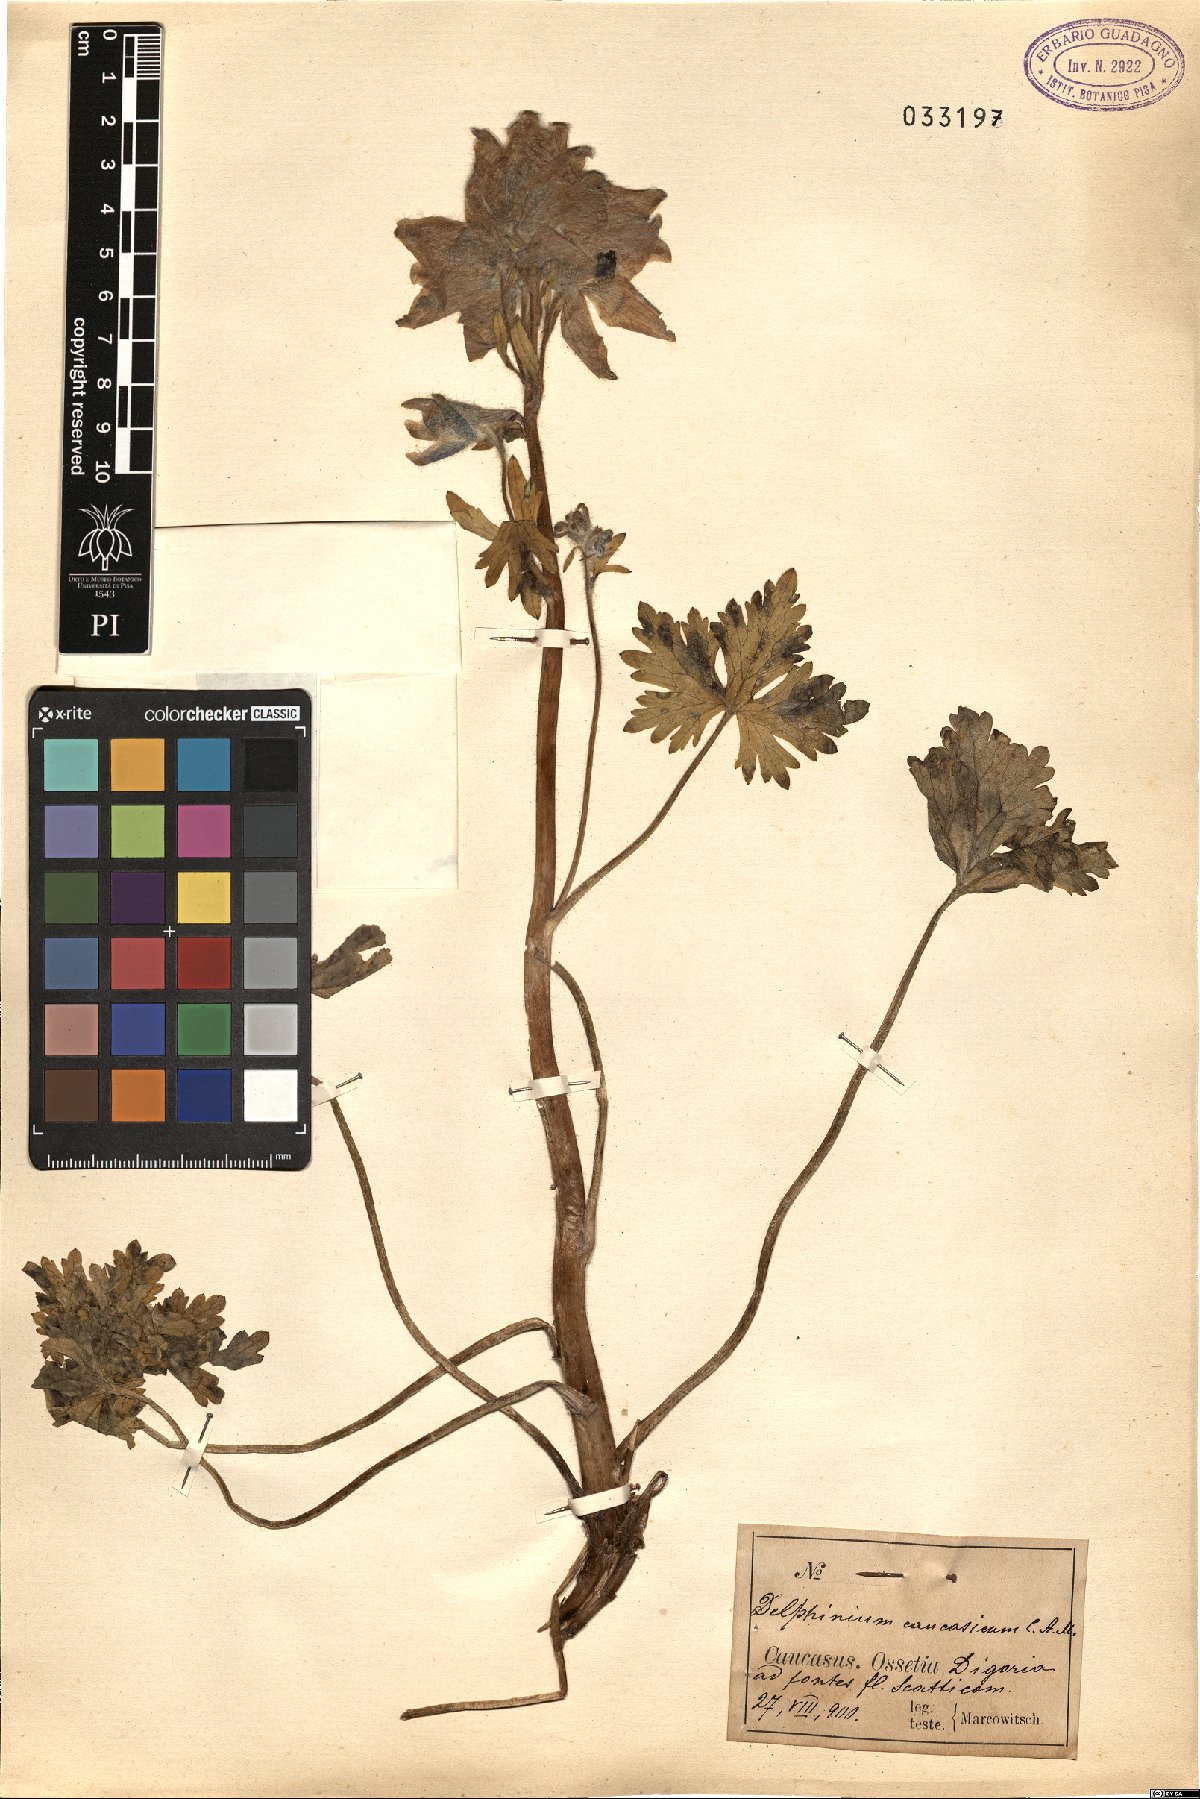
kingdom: Plantae
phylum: Tracheophyta
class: Magnoliopsida
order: Ranunculales
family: Ranunculaceae
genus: Delphinium
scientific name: Delphinium caucasicum
